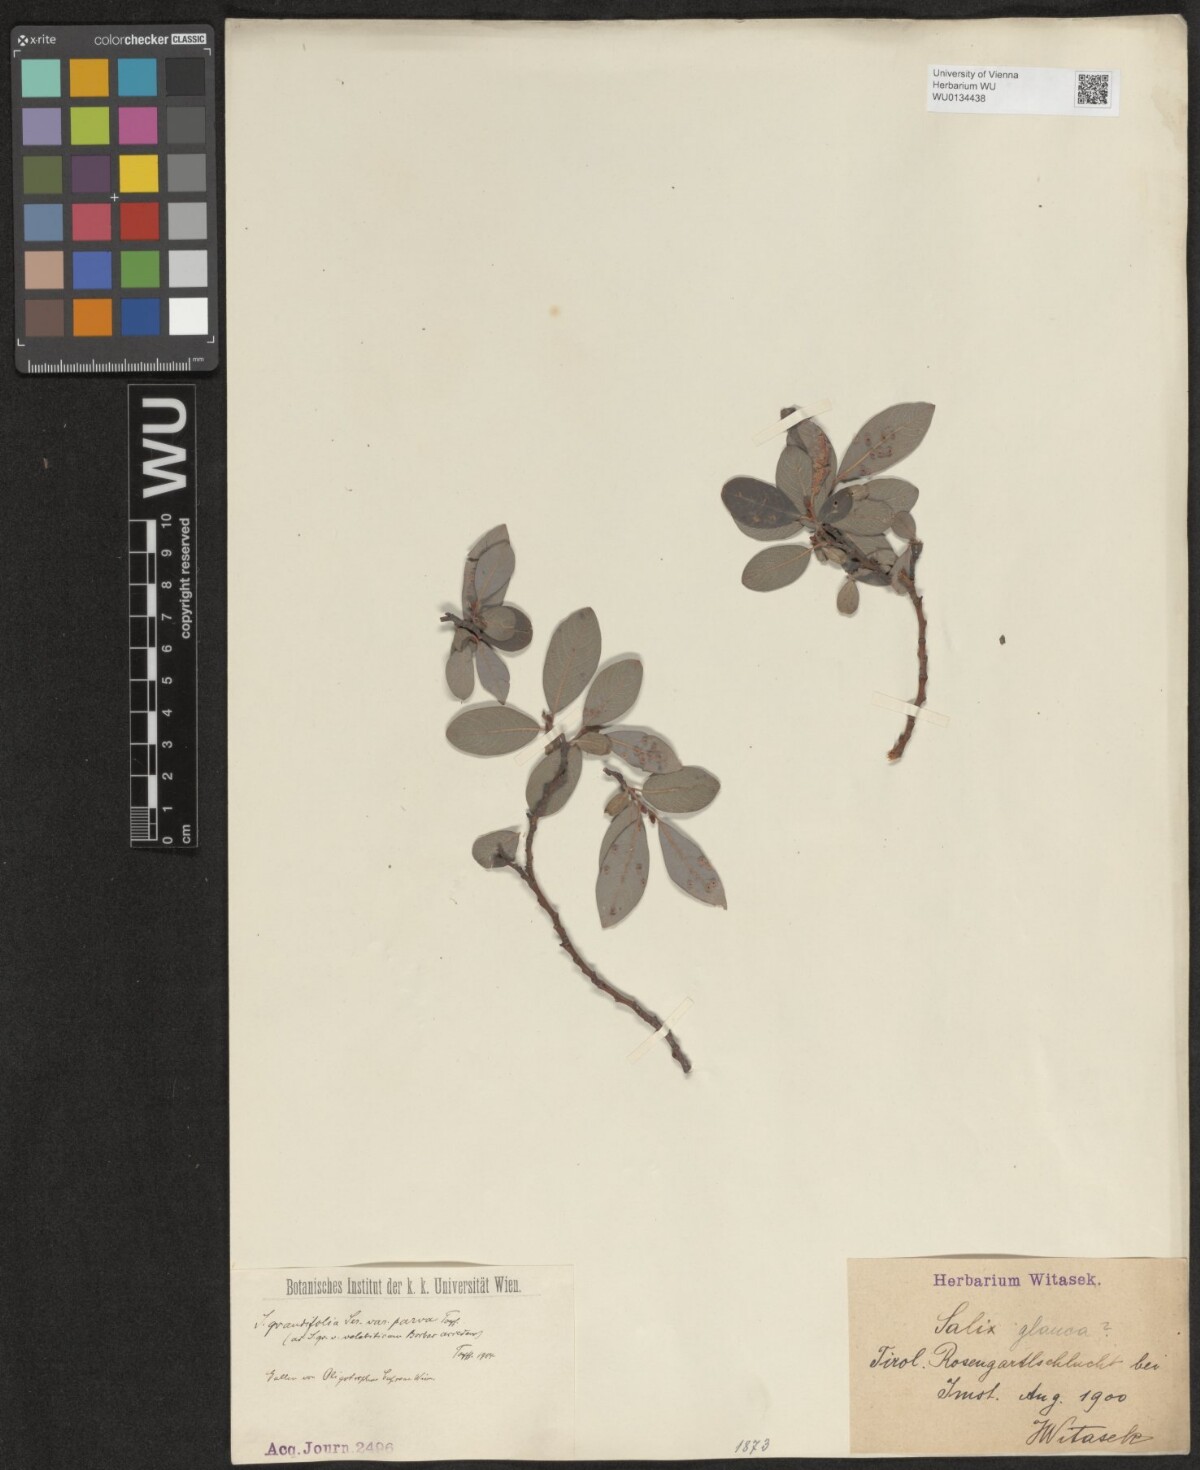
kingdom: Plantae
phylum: Tracheophyta
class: Magnoliopsida
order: Malpighiales
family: Salicaceae
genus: Salix
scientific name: Salix appendiculata
